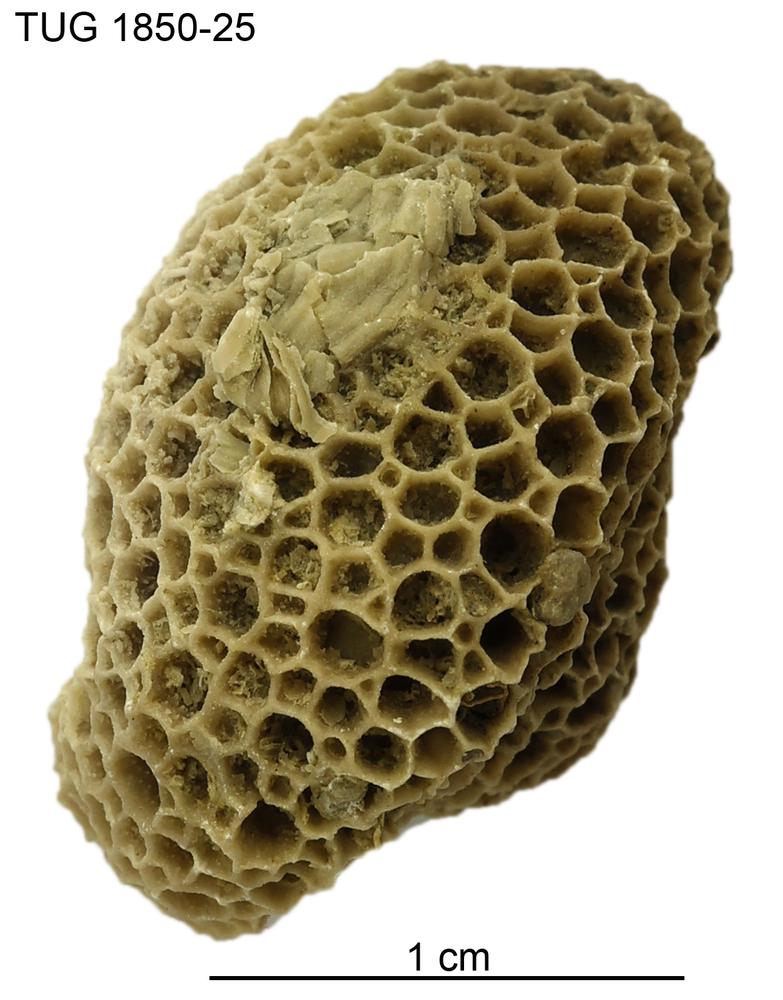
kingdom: Animalia
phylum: Cnidaria
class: Anthozoa
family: Favositidae
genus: Favosites
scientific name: Favosites
